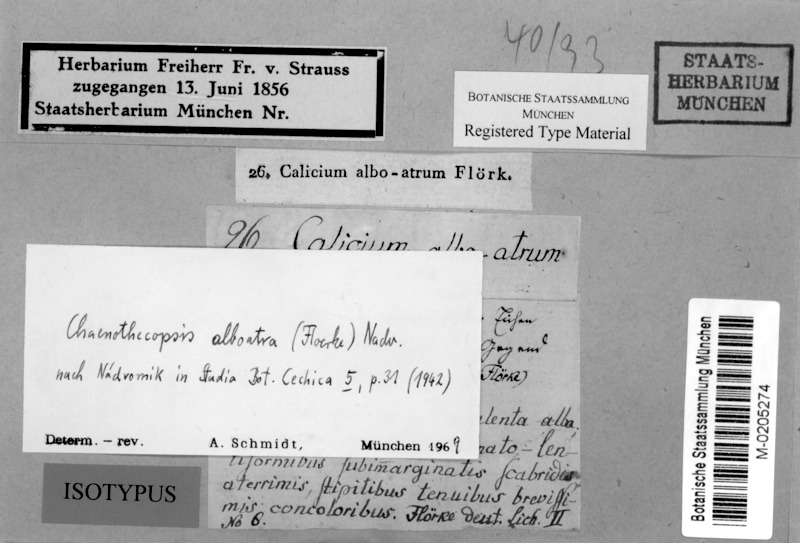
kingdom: Fungi
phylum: Ascomycota
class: Eurotiomycetes
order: Mycocaliciales
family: Mycocaliciaceae
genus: Chaenothecopsis
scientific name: Chaenothecopsis pusilla
